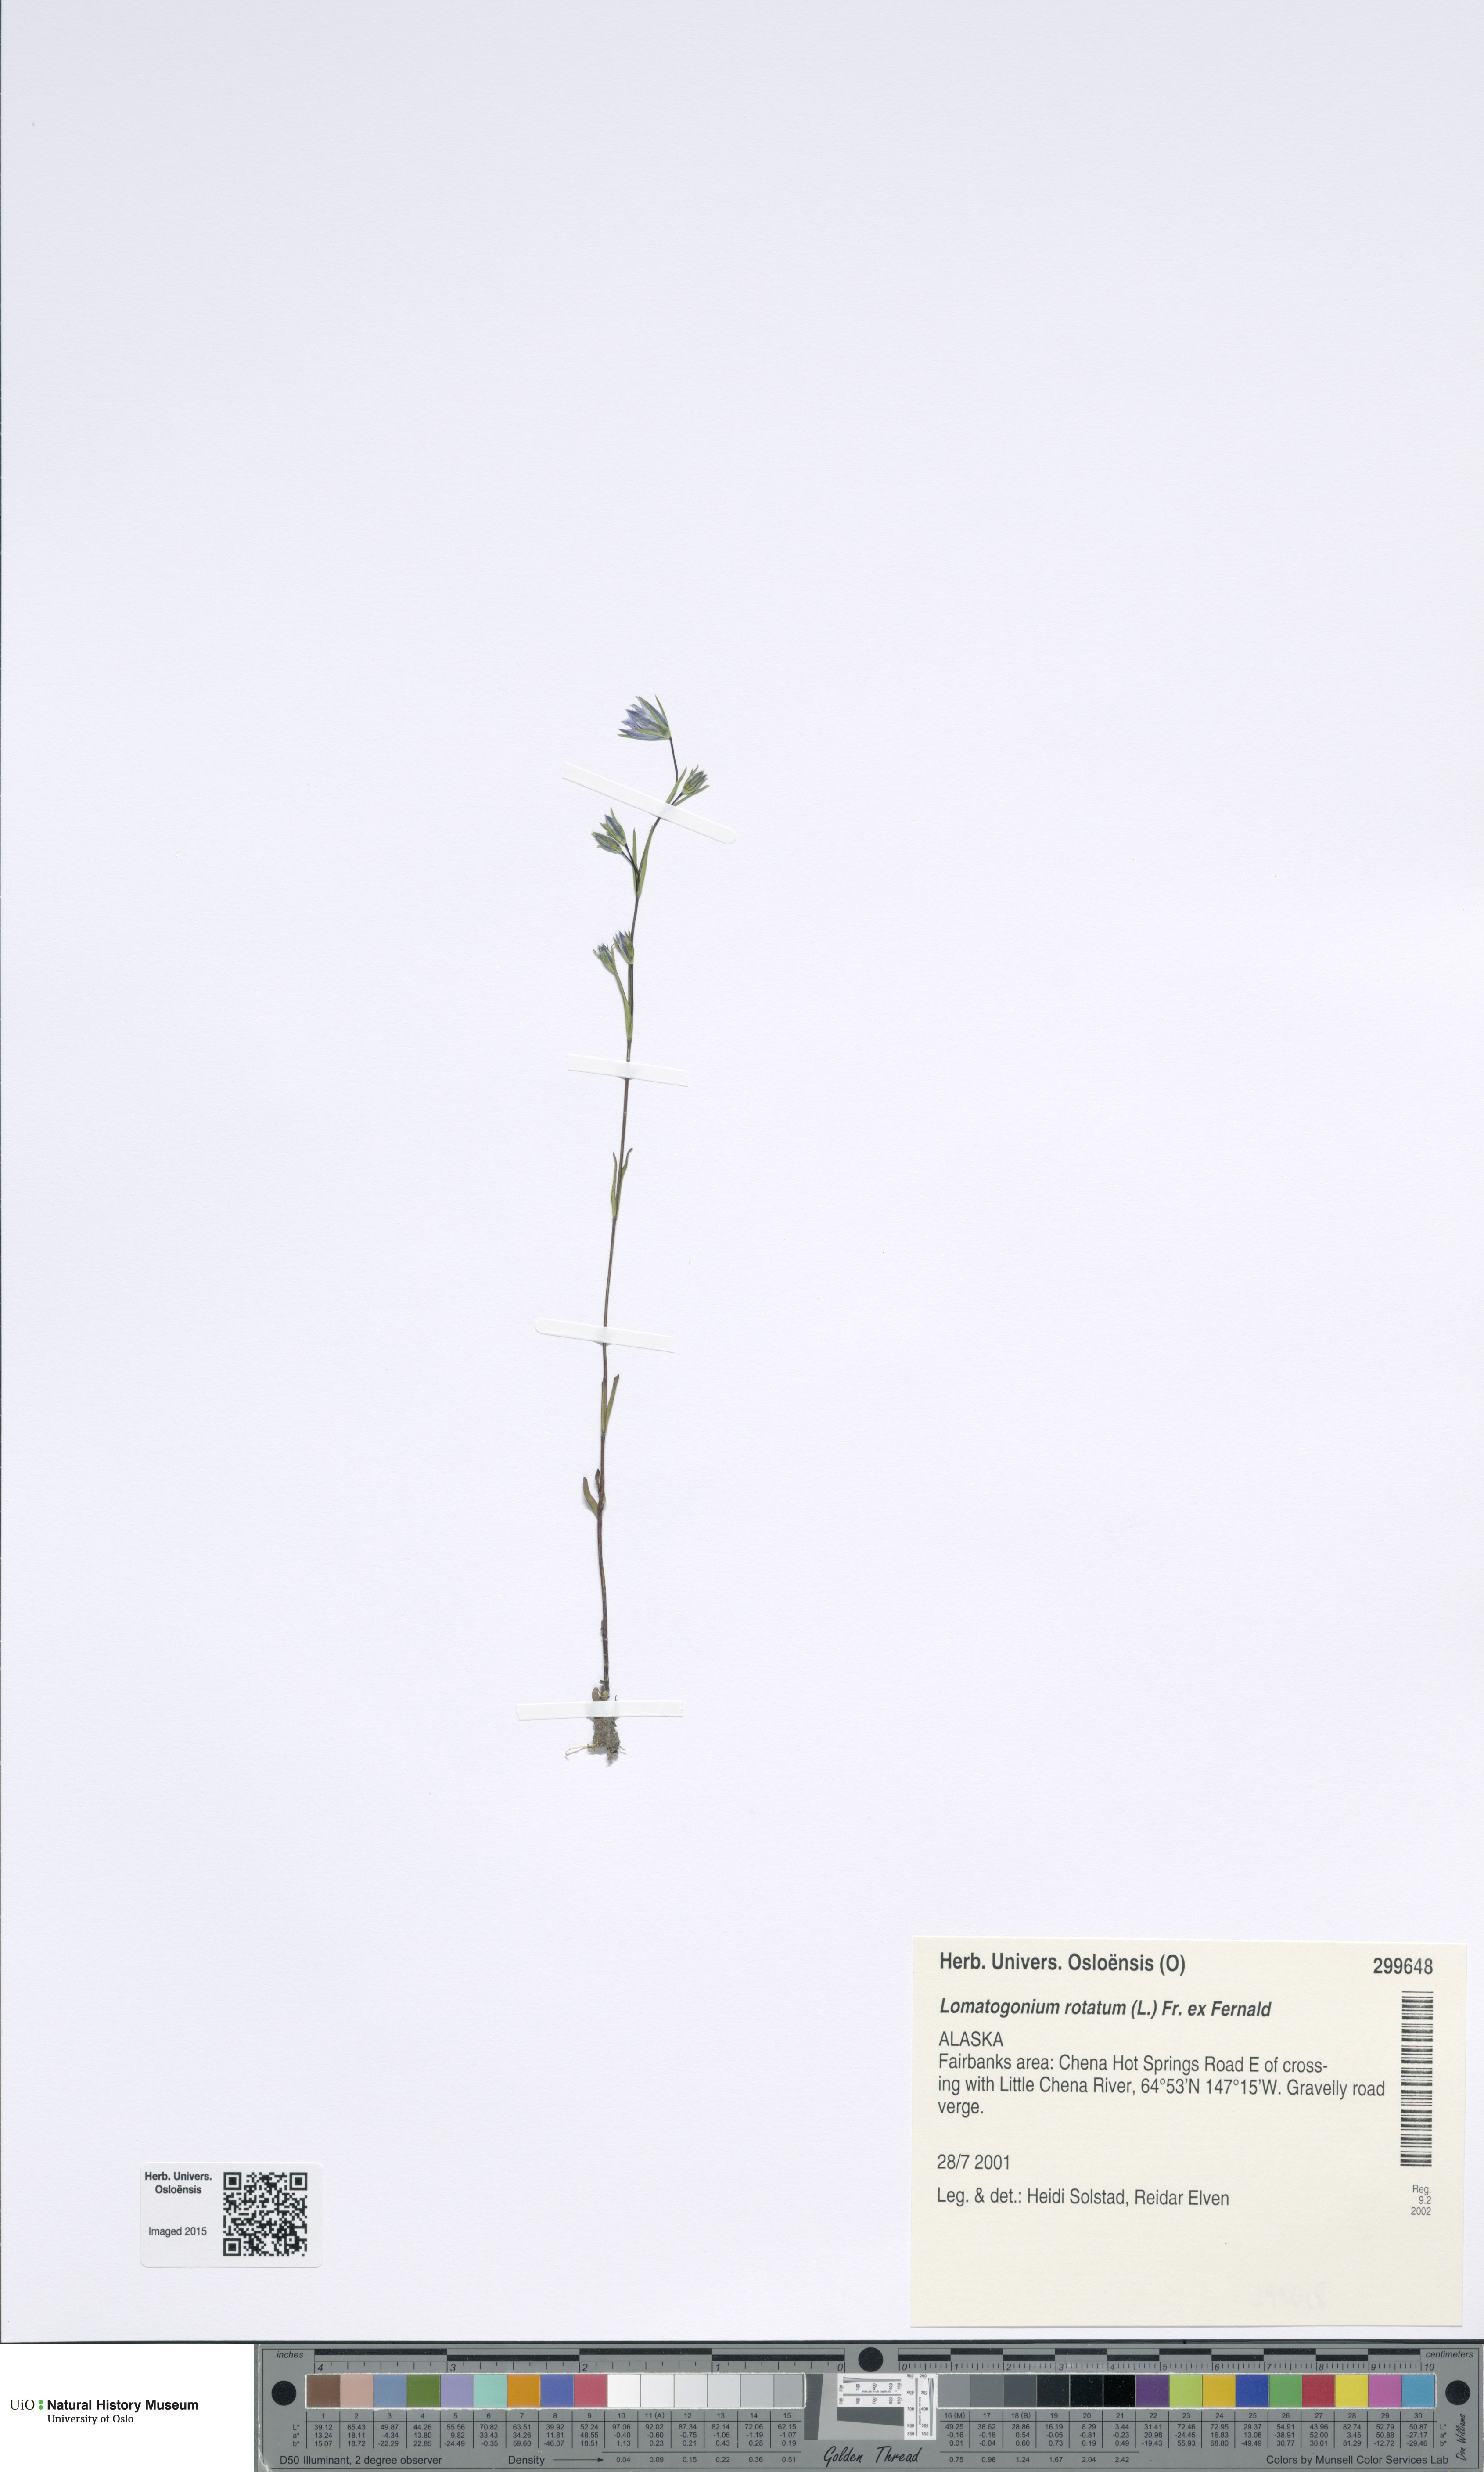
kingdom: Plantae
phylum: Tracheophyta
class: Magnoliopsida
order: Gentianales
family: Gentianaceae
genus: Lomatogonium
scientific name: Lomatogonium rotatum
